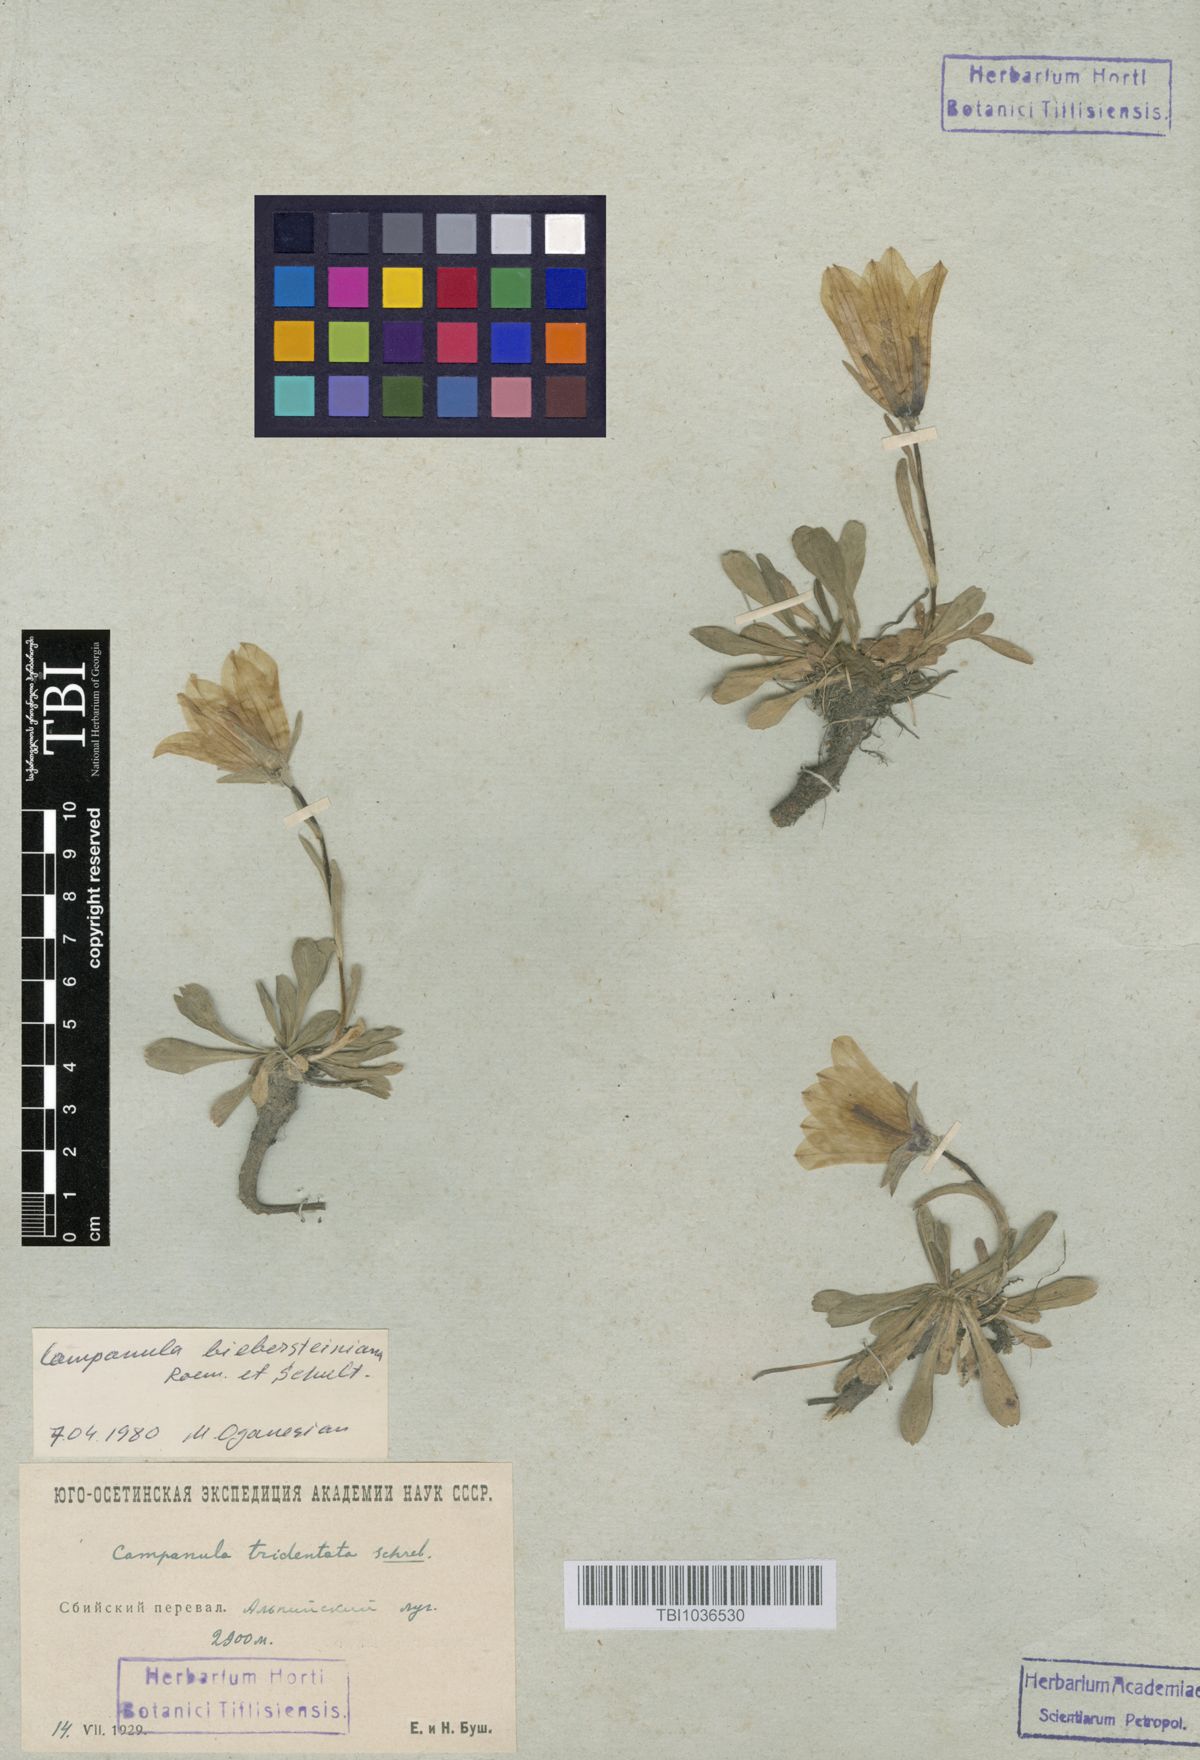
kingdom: Plantae
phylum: Tracheophyta
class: Magnoliopsida
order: Asterales
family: Campanulaceae
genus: Campanula
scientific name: Campanula tridentata
